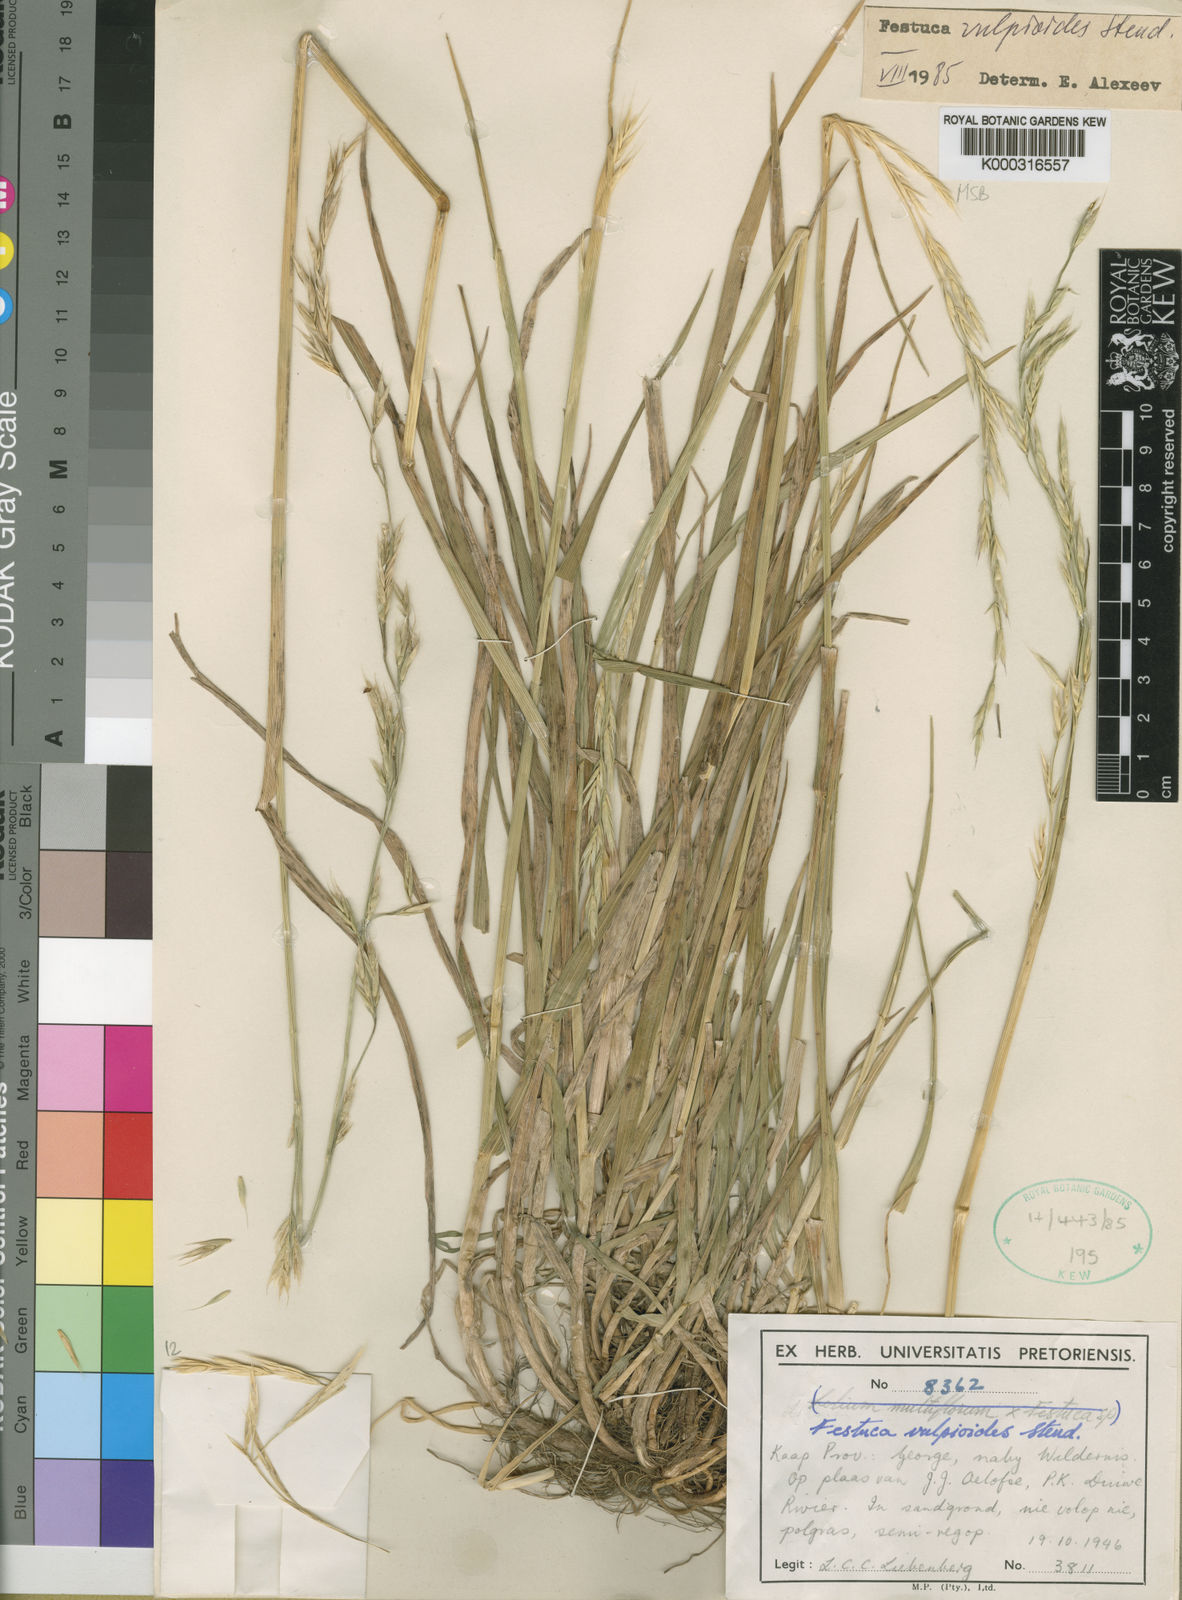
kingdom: Plantae
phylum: Tracheophyta
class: Liliopsida
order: Poales
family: Poaceae
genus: Festuca
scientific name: Festuca vulpioides
